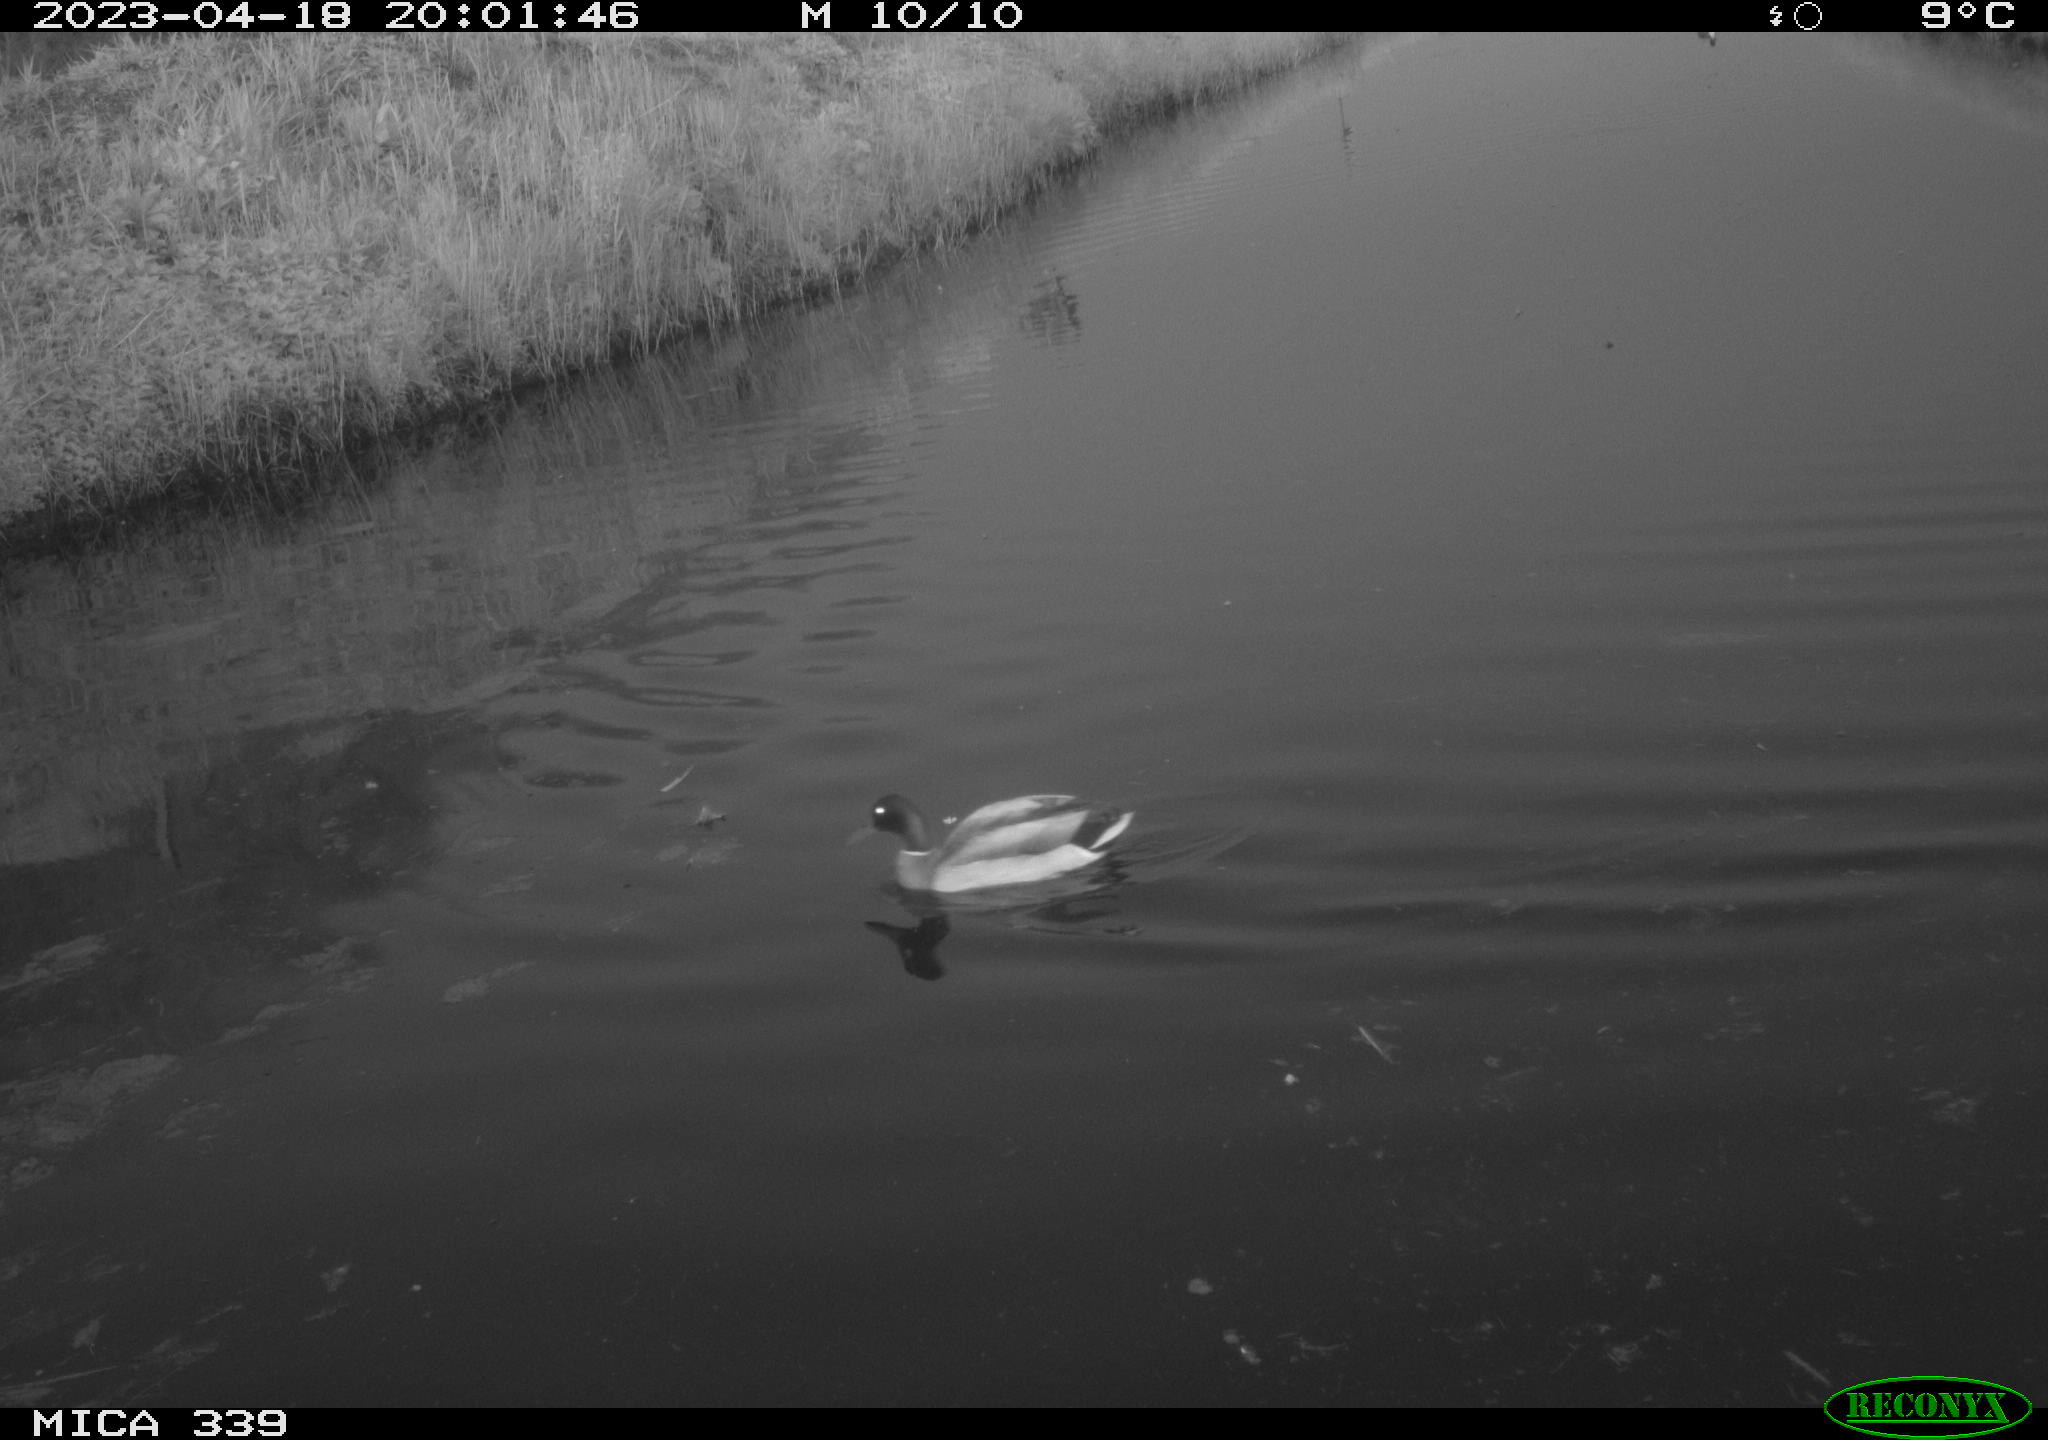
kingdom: Animalia
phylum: Chordata
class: Aves
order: Anseriformes
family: Anatidae
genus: Anas
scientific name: Anas
